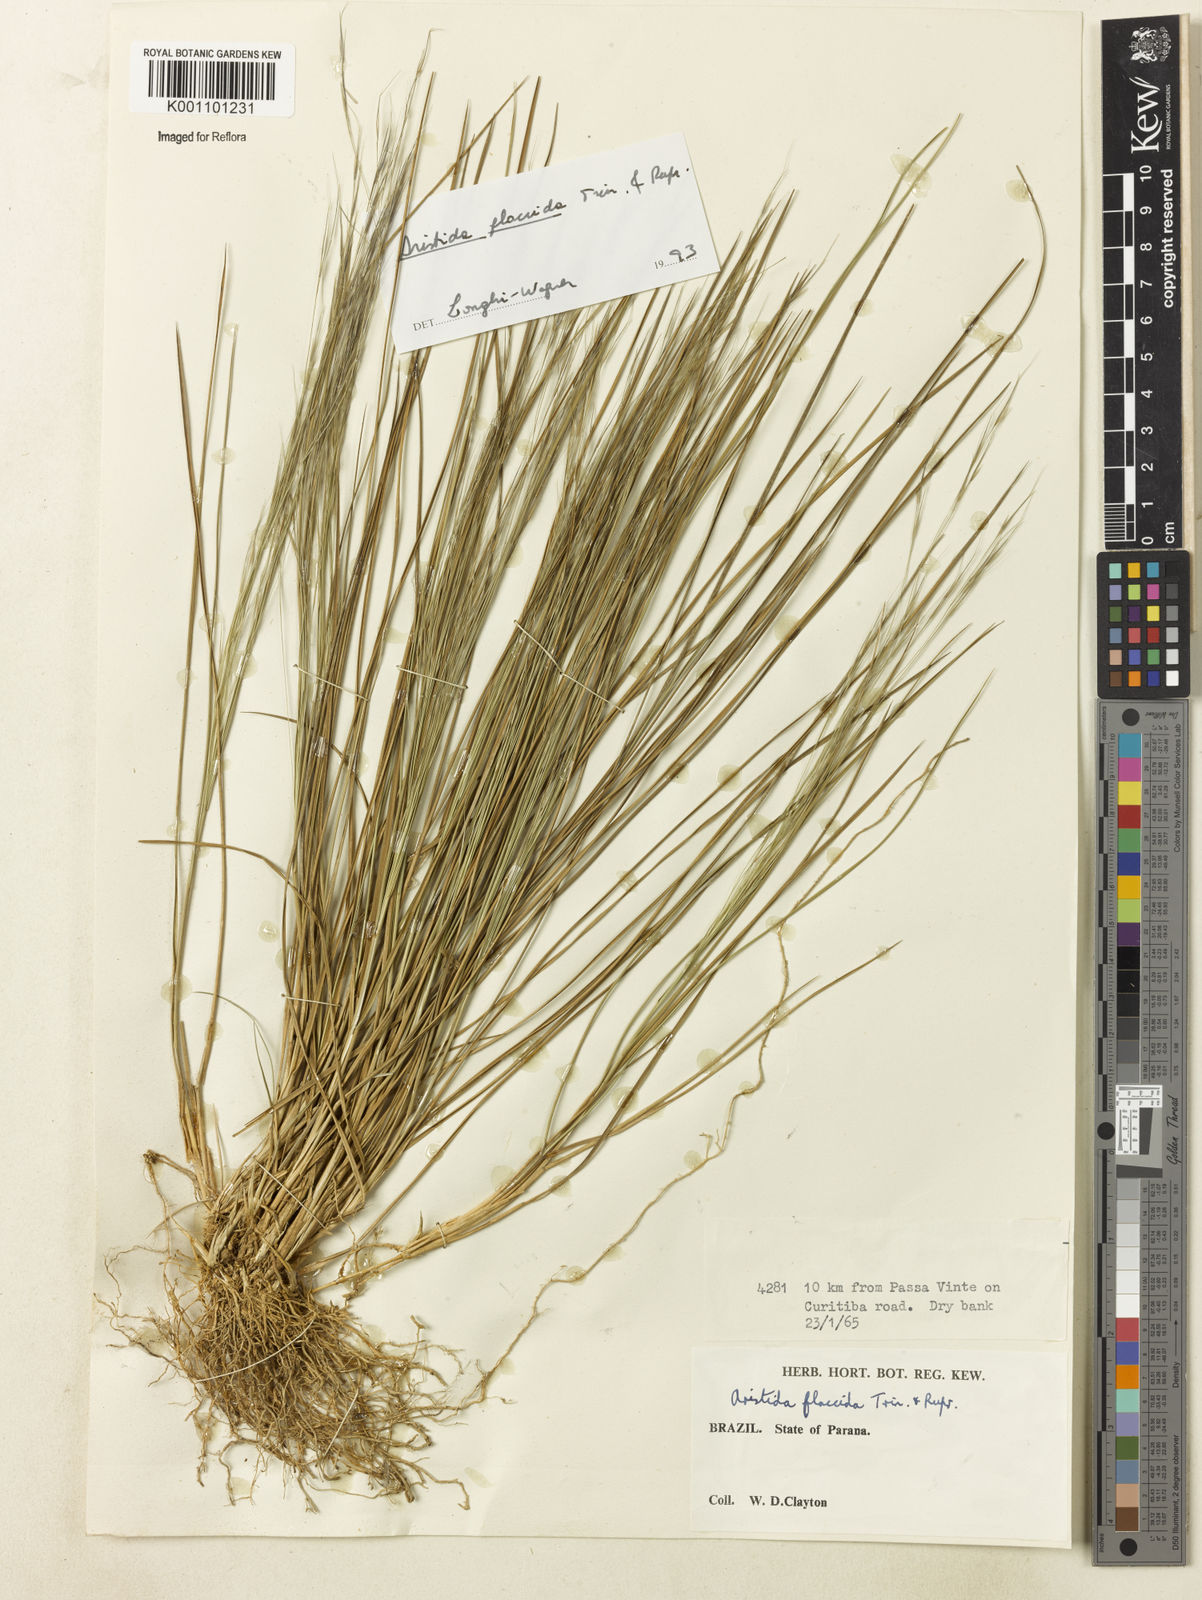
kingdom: Plantae
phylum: Tracheophyta
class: Liliopsida
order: Poales
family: Poaceae
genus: Aristida
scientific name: Aristida flaccida
